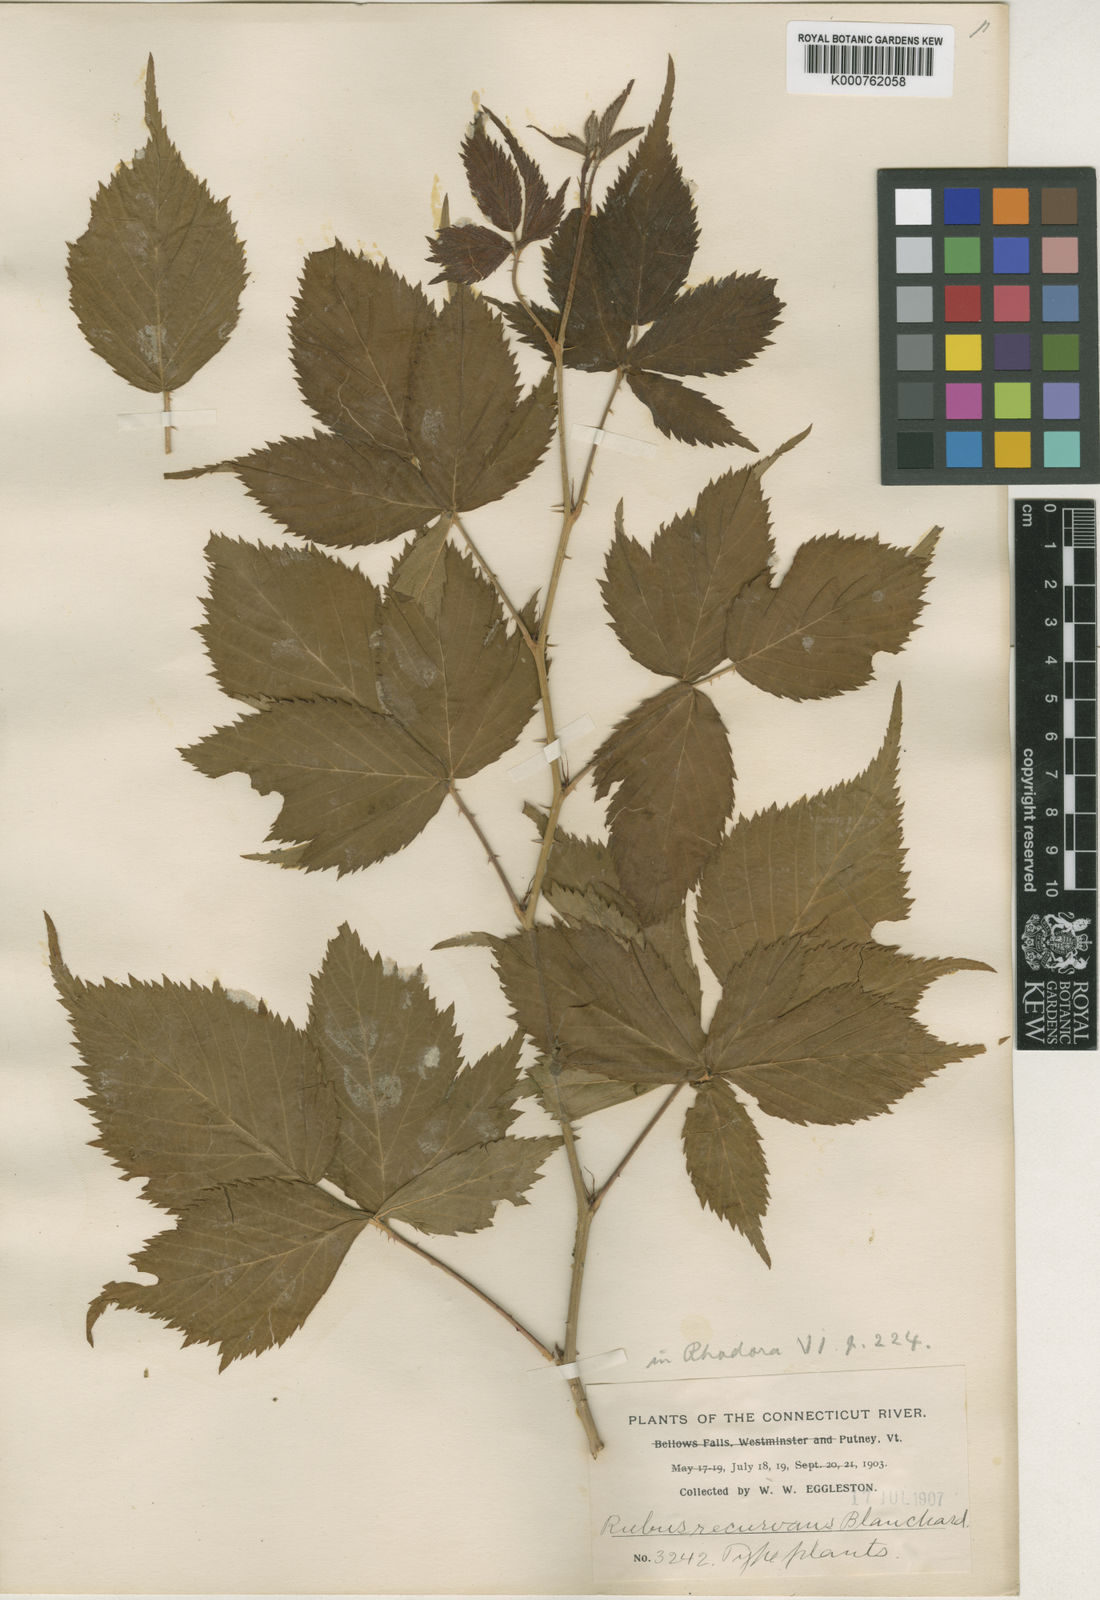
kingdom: Plantae
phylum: Tracheophyta
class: Magnoliopsida
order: Rosales
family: Rosaceae
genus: Rubus
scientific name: Rubus recurvans
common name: Recurved blackberry
